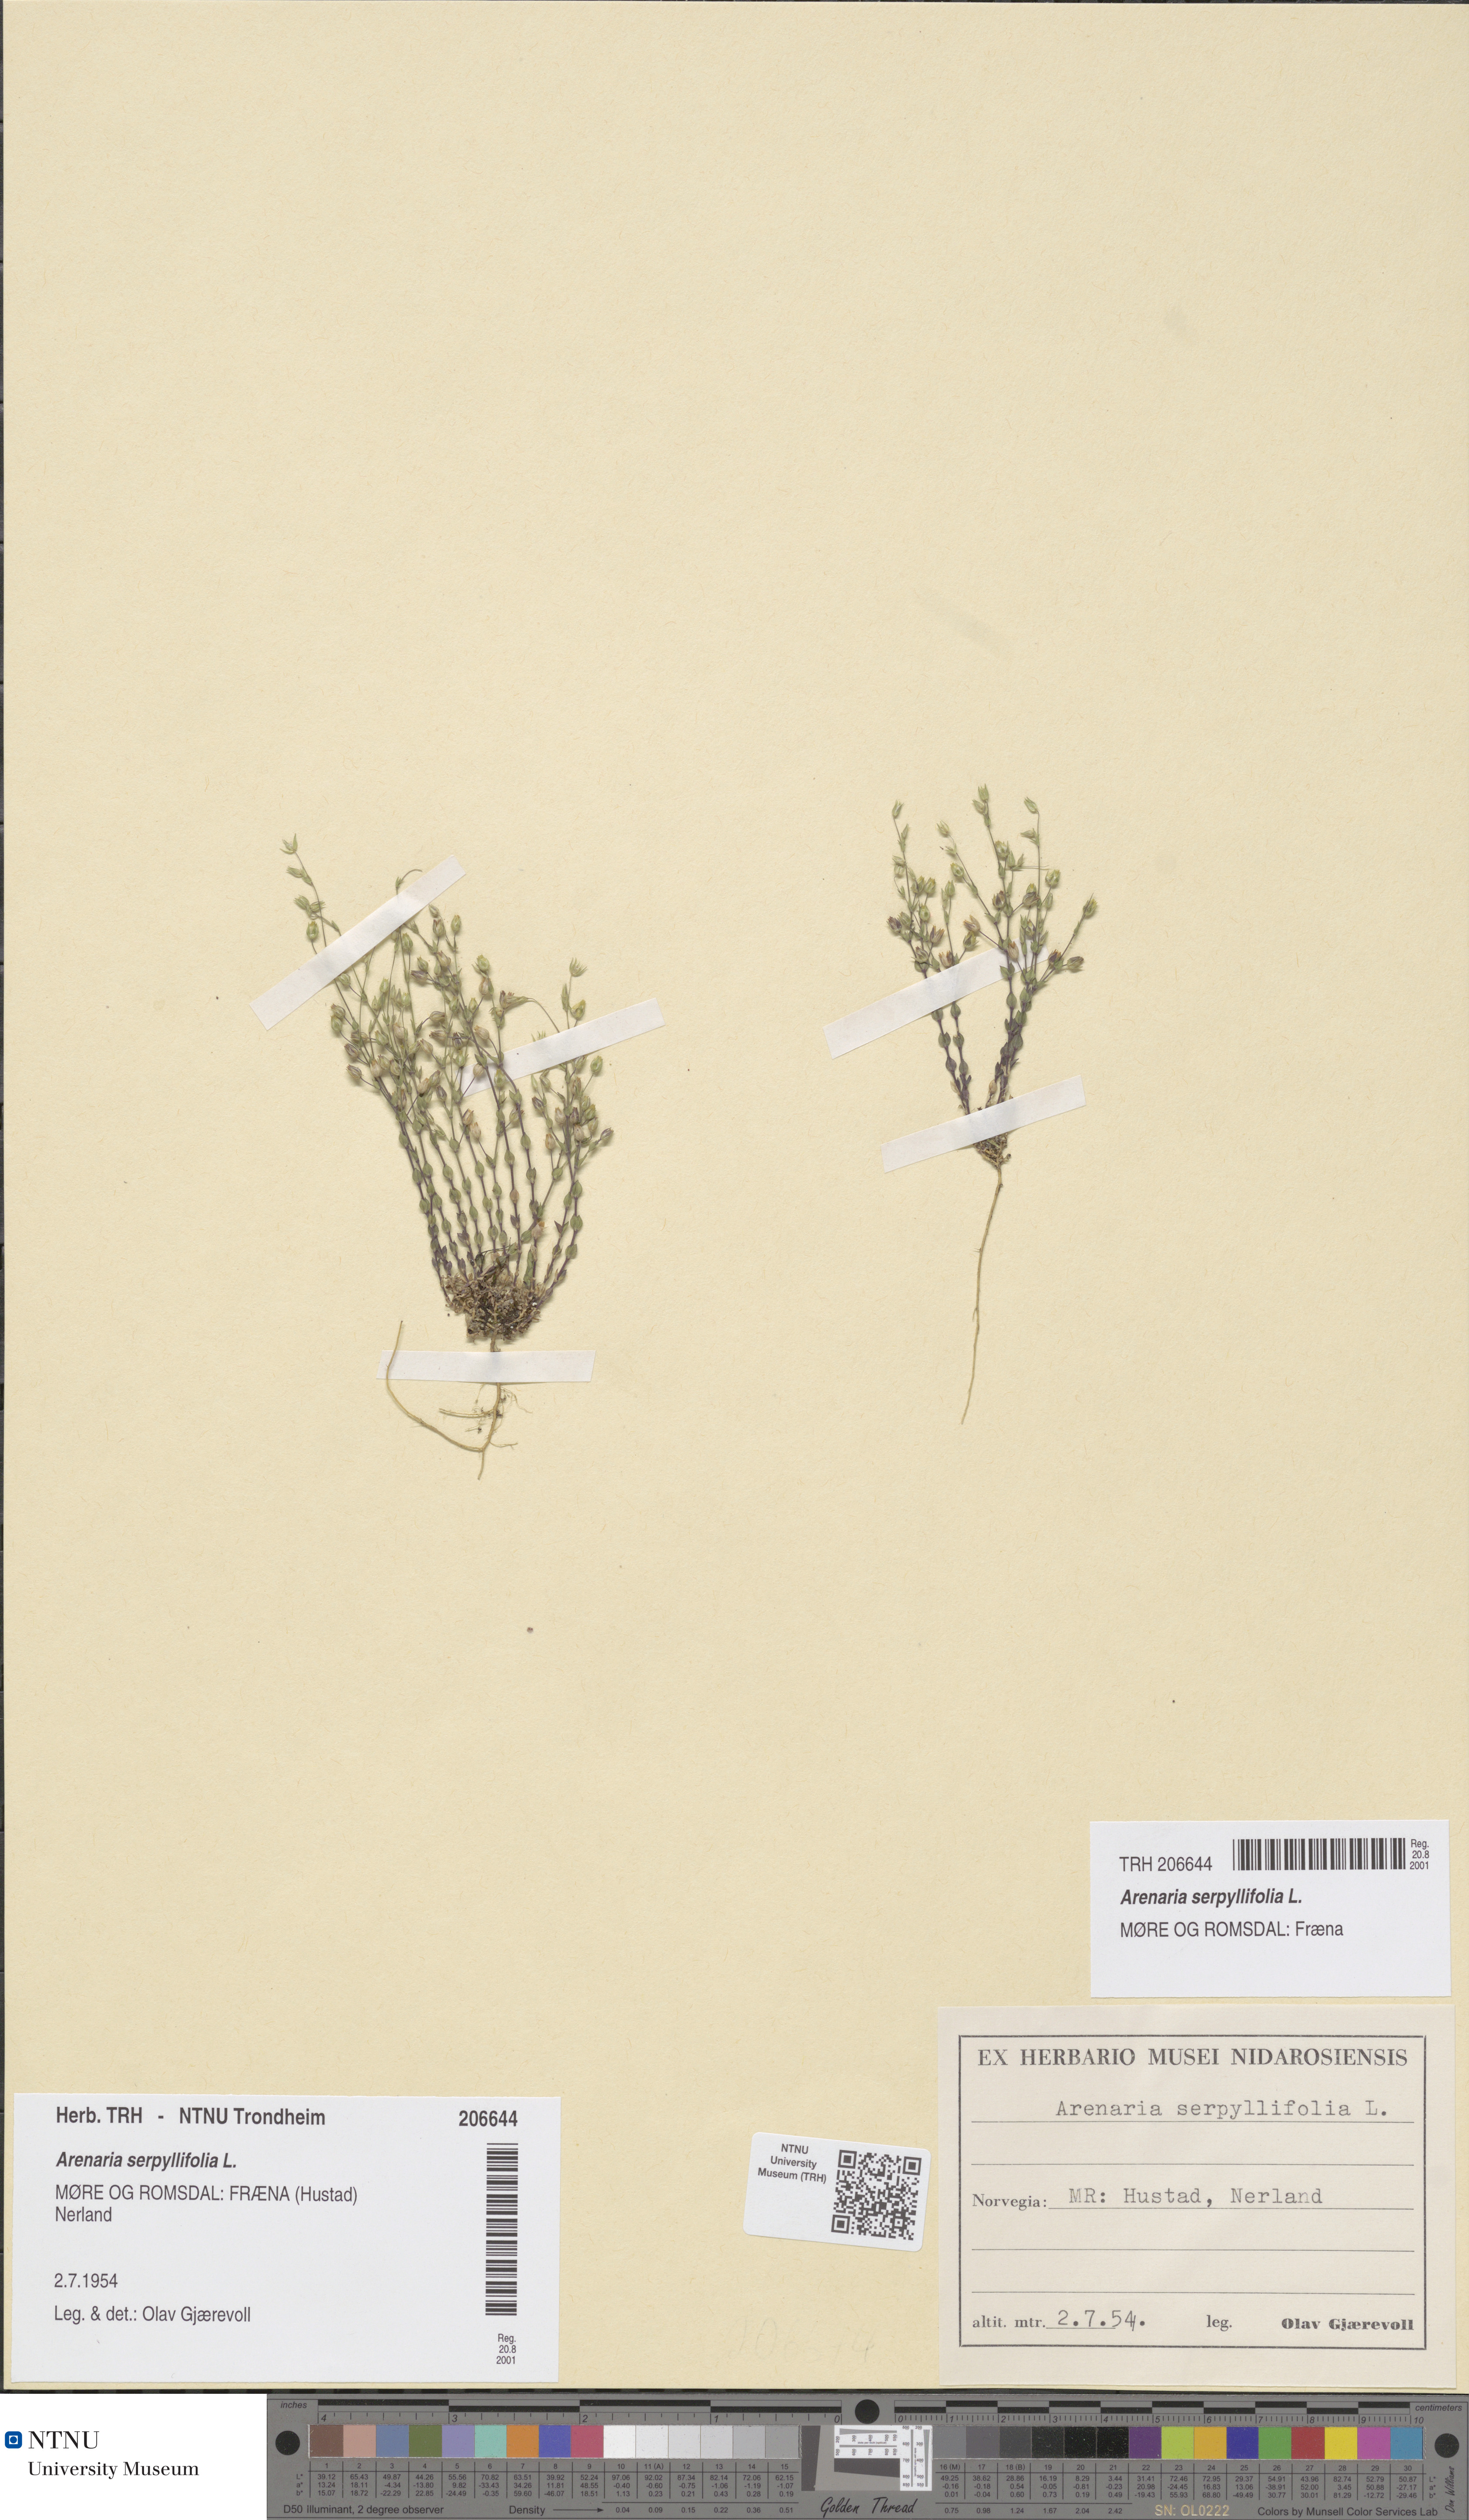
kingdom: Plantae
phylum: Tracheophyta
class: Magnoliopsida
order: Caryophyllales
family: Caryophyllaceae
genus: Arenaria
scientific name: Arenaria serpyllifolia
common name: Thyme-leaved sandwort
